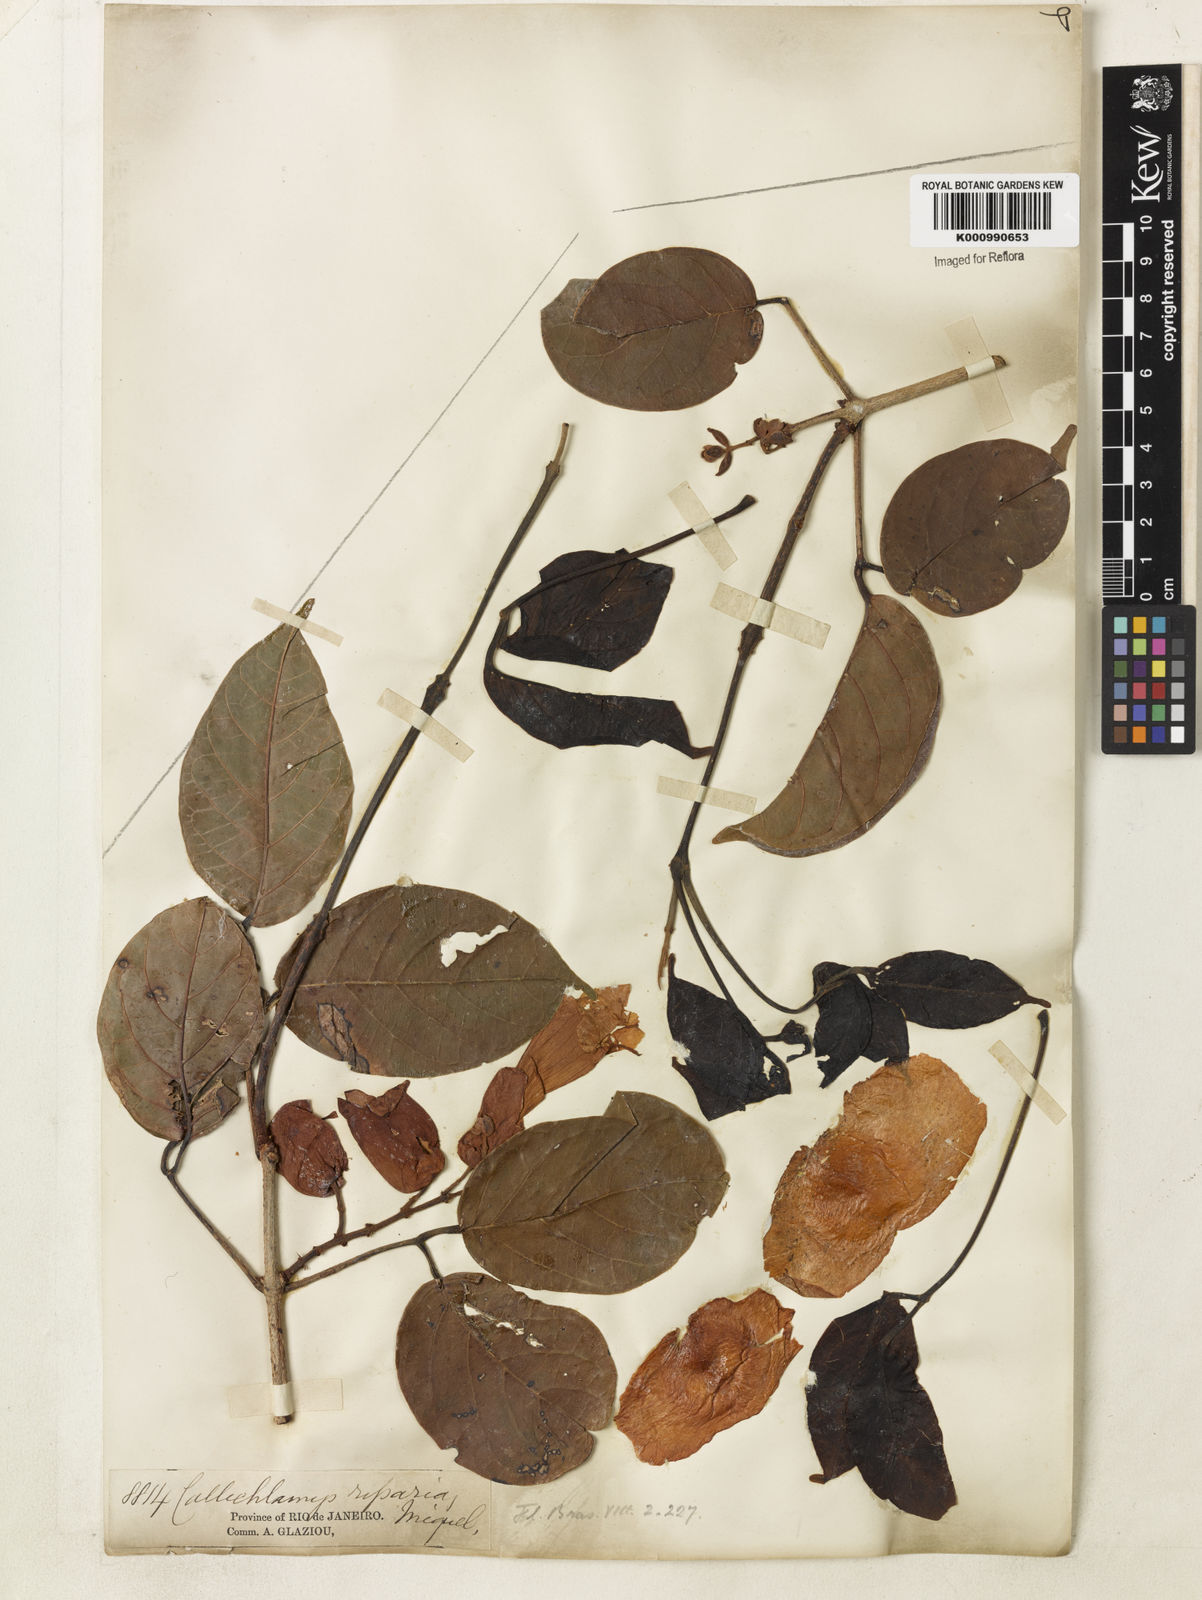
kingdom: Plantae
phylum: Tracheophyta
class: Magnoliopsida
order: Lamiales
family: Bignoniaceae
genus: Callichlamys
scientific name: Callichlamys latifolia
